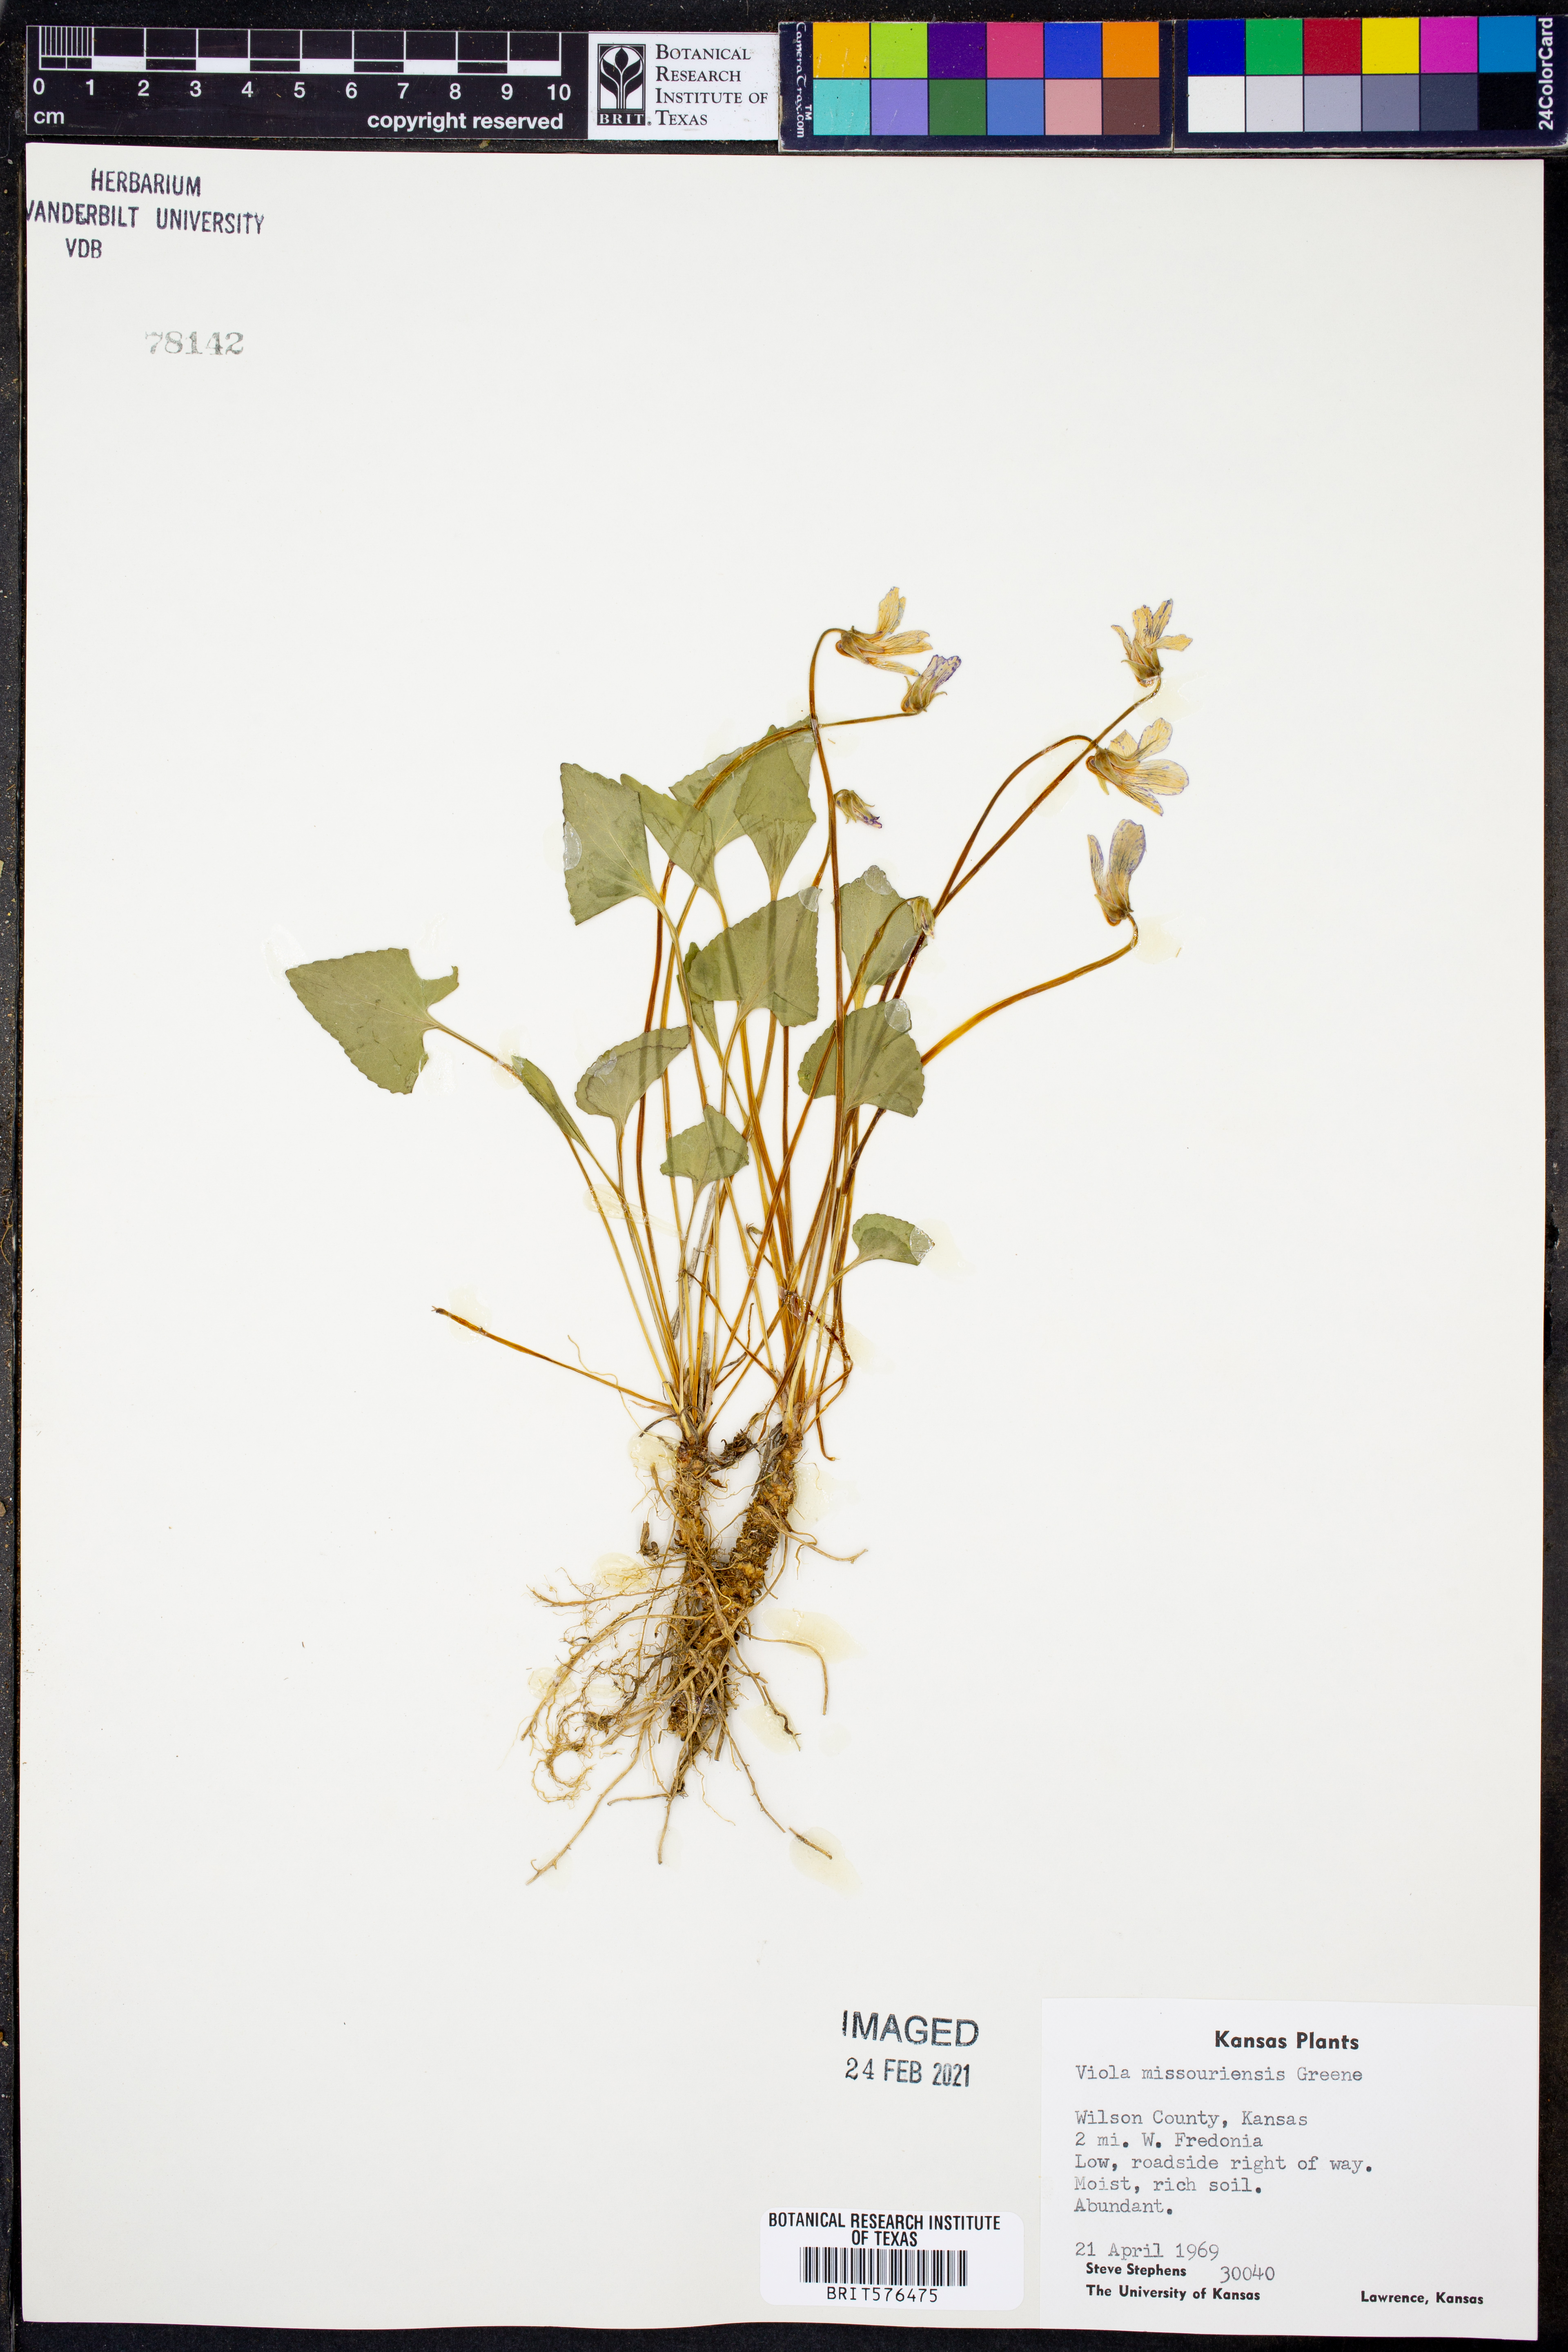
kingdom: Plantae
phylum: Tracheophyta
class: Magnoliopsida
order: Malpighiales
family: Violaceae
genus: Viola
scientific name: Viola missouriensis
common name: Missouri violet
